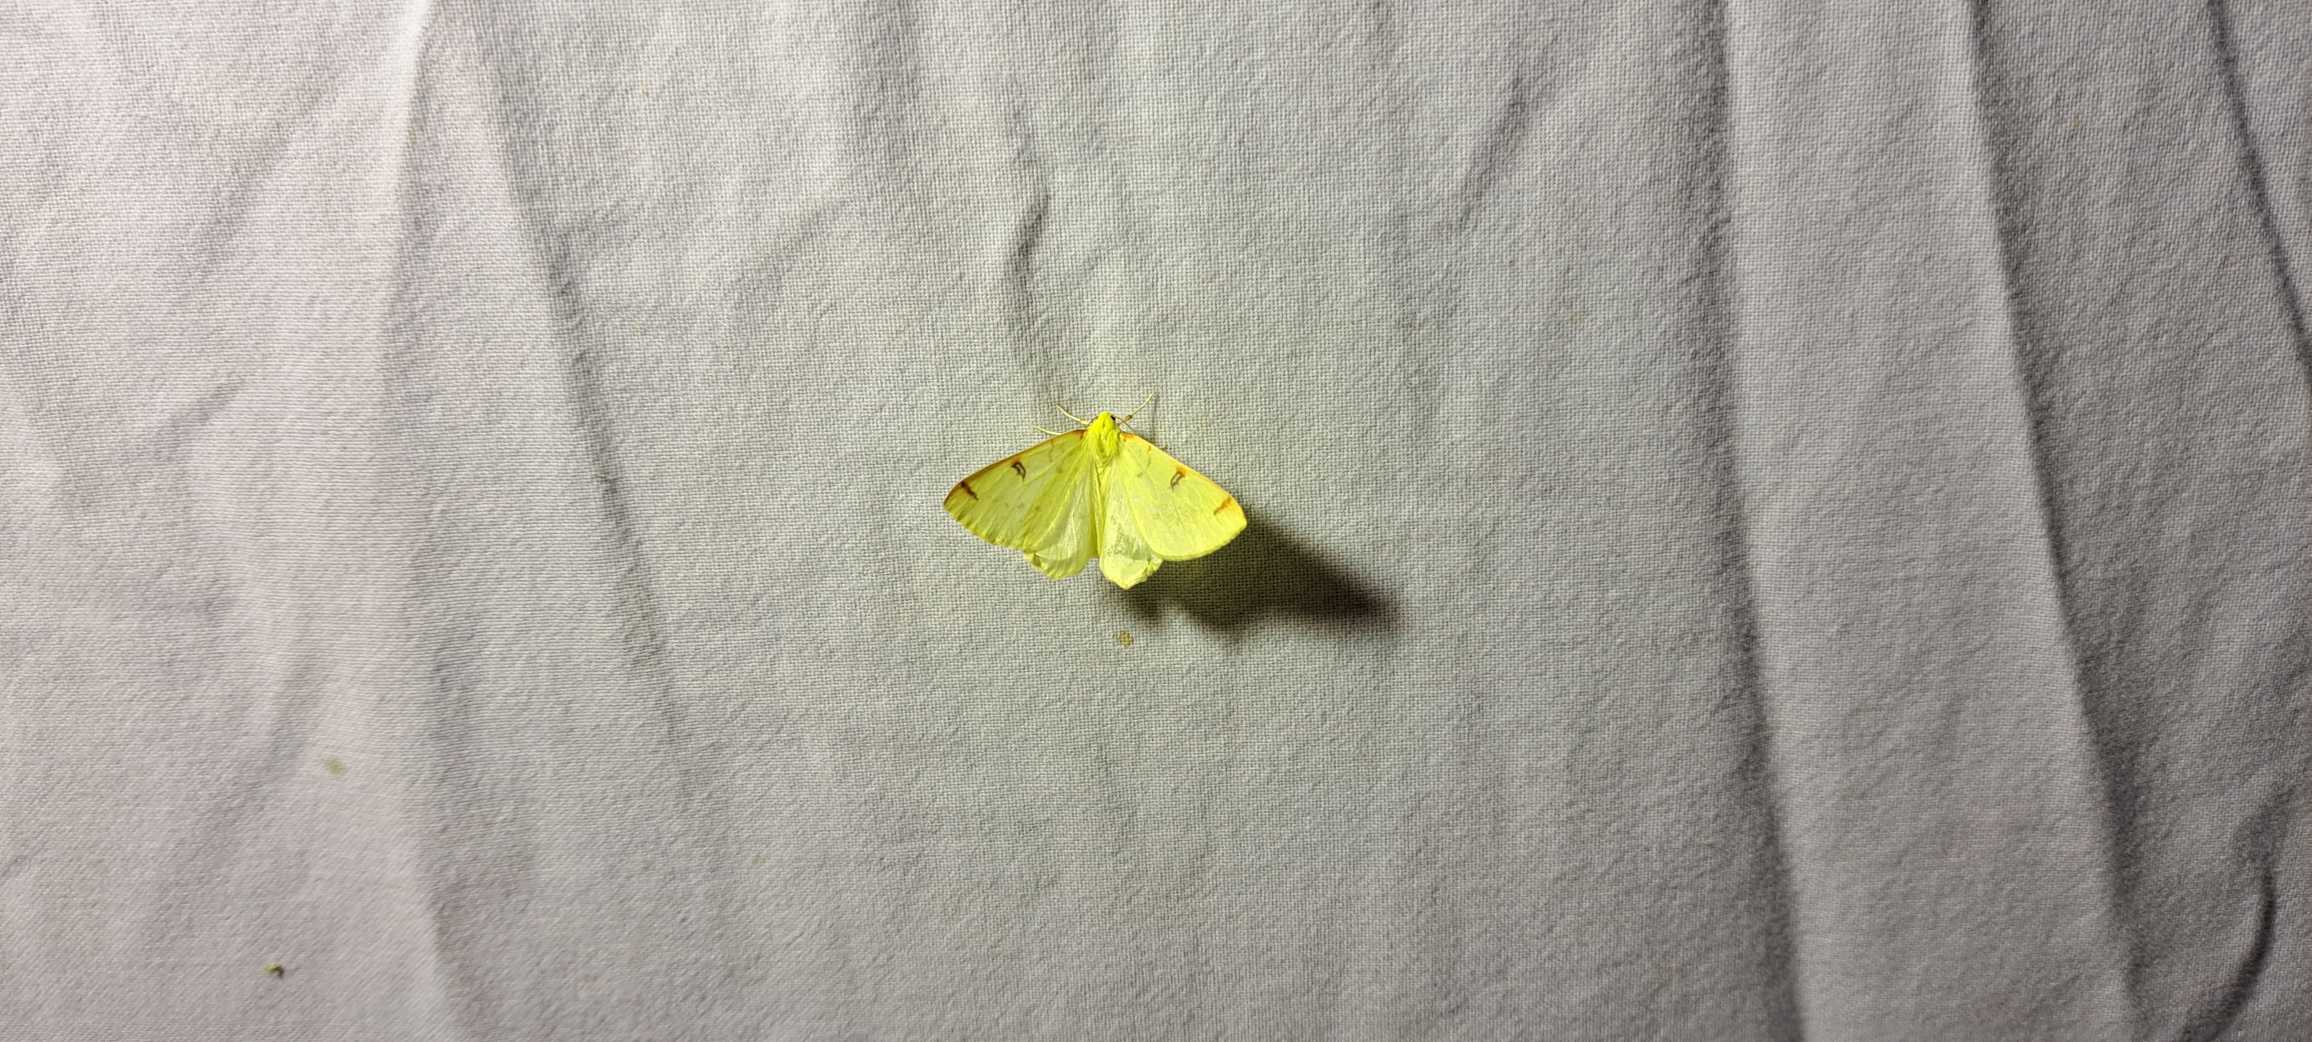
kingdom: Animalia
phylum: Arthropoda
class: Insecta
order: Lepidoptera
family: Geometridae
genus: Opisthograptis
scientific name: Opisthograptis luteolata
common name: Citronmåler
